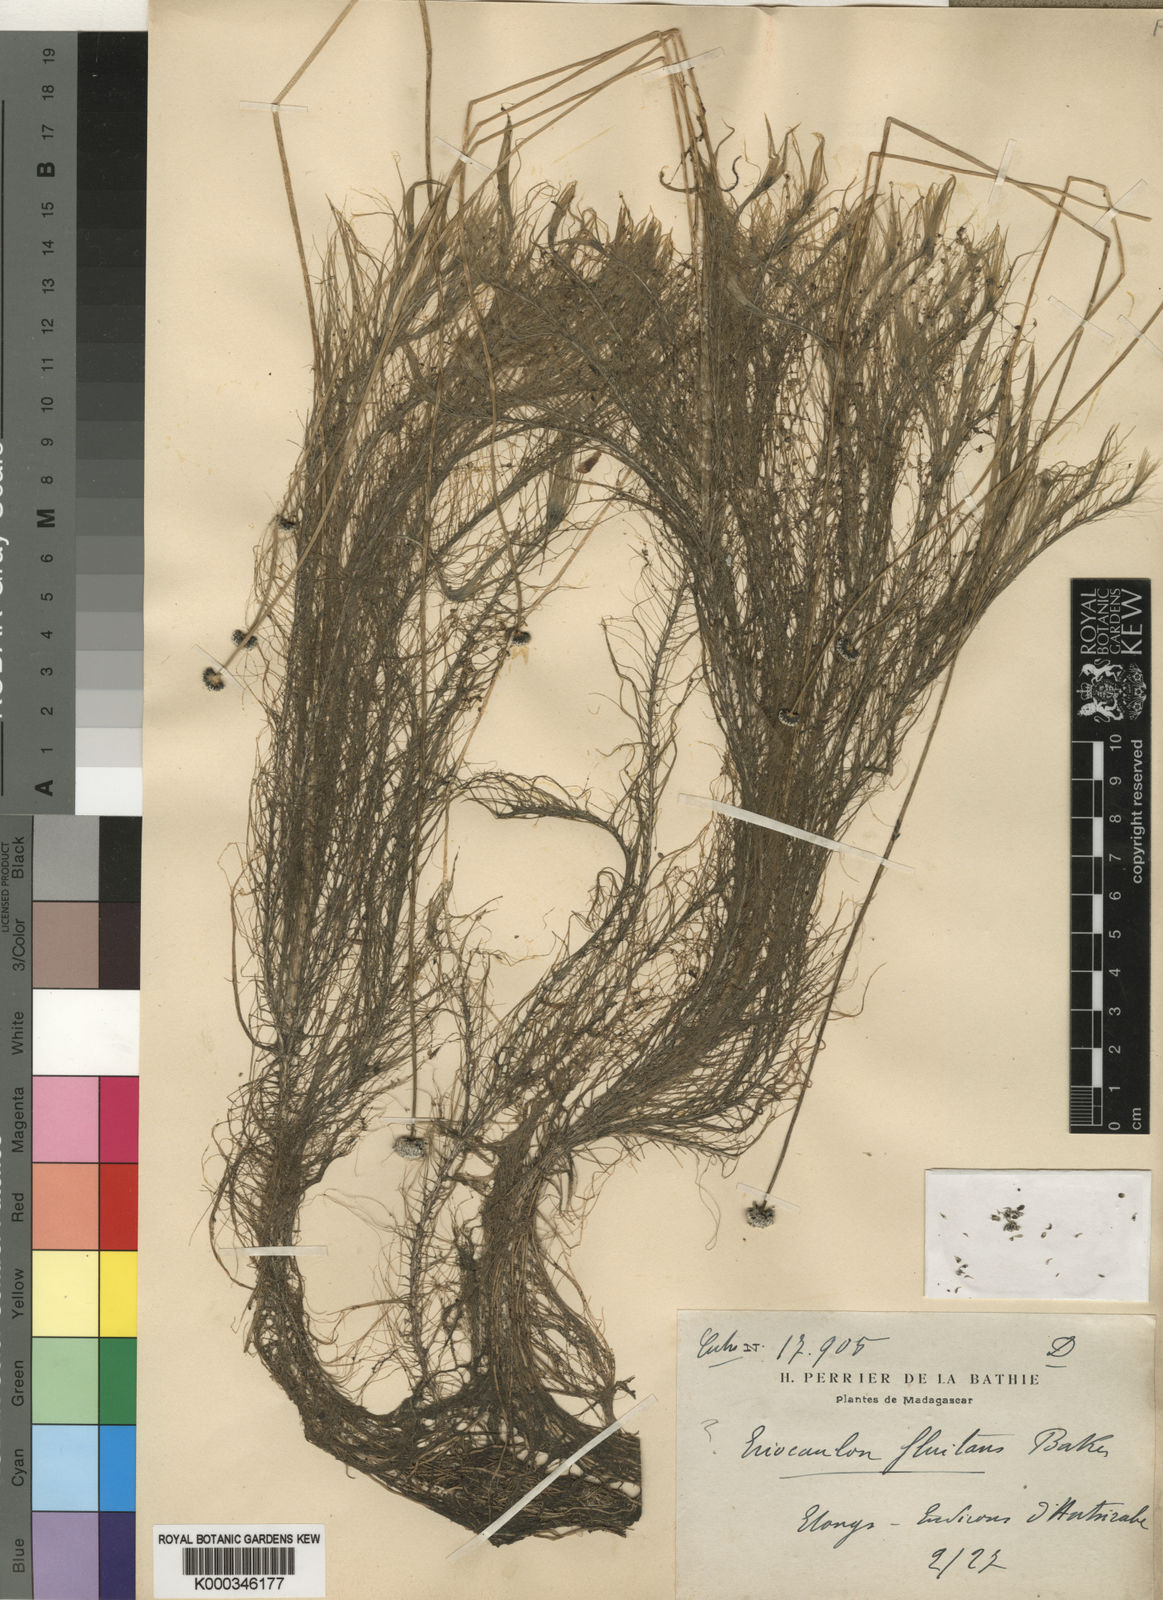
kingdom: Plantae
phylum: Tracheophyta
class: Liliopsida
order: Poales
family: Eriocaulaceae
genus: Eriocaulon
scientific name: Eriocaulon madagascariense
